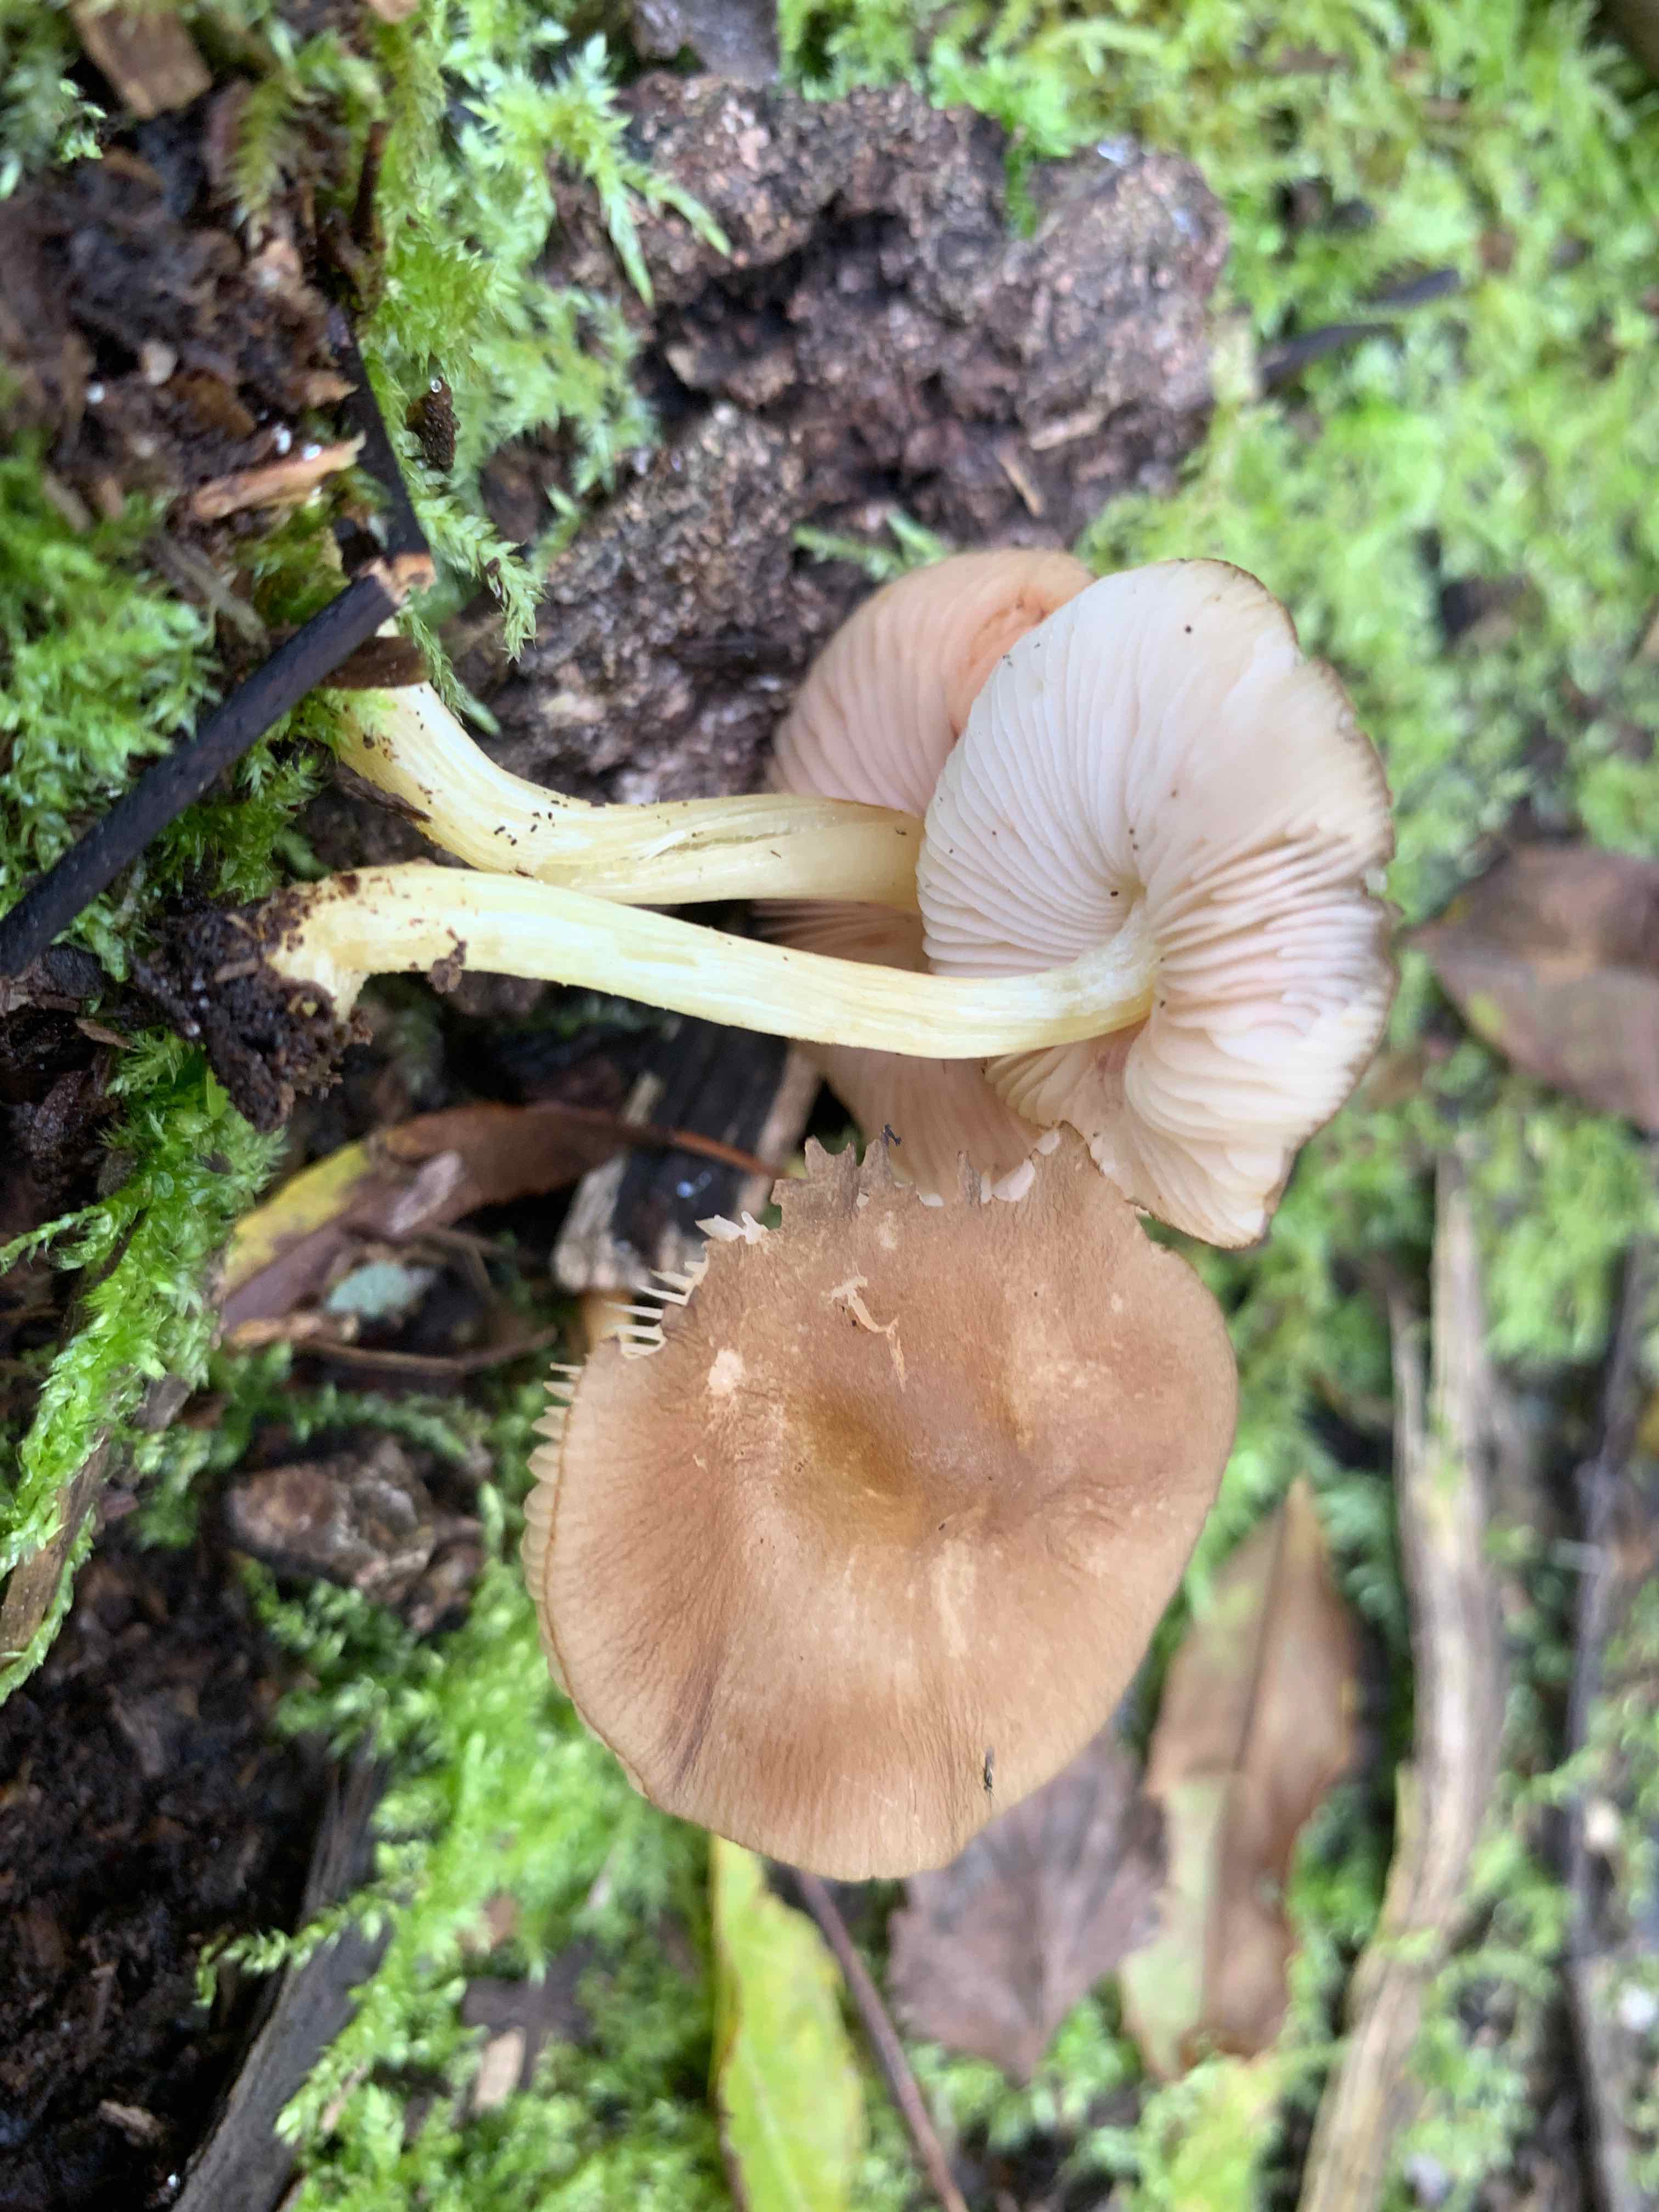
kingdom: Fungi
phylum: Basidiomycota
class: Agaricomycetes
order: Agaricales
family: Pluteaceae
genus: Pluteus
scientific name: Pluteus romellii
